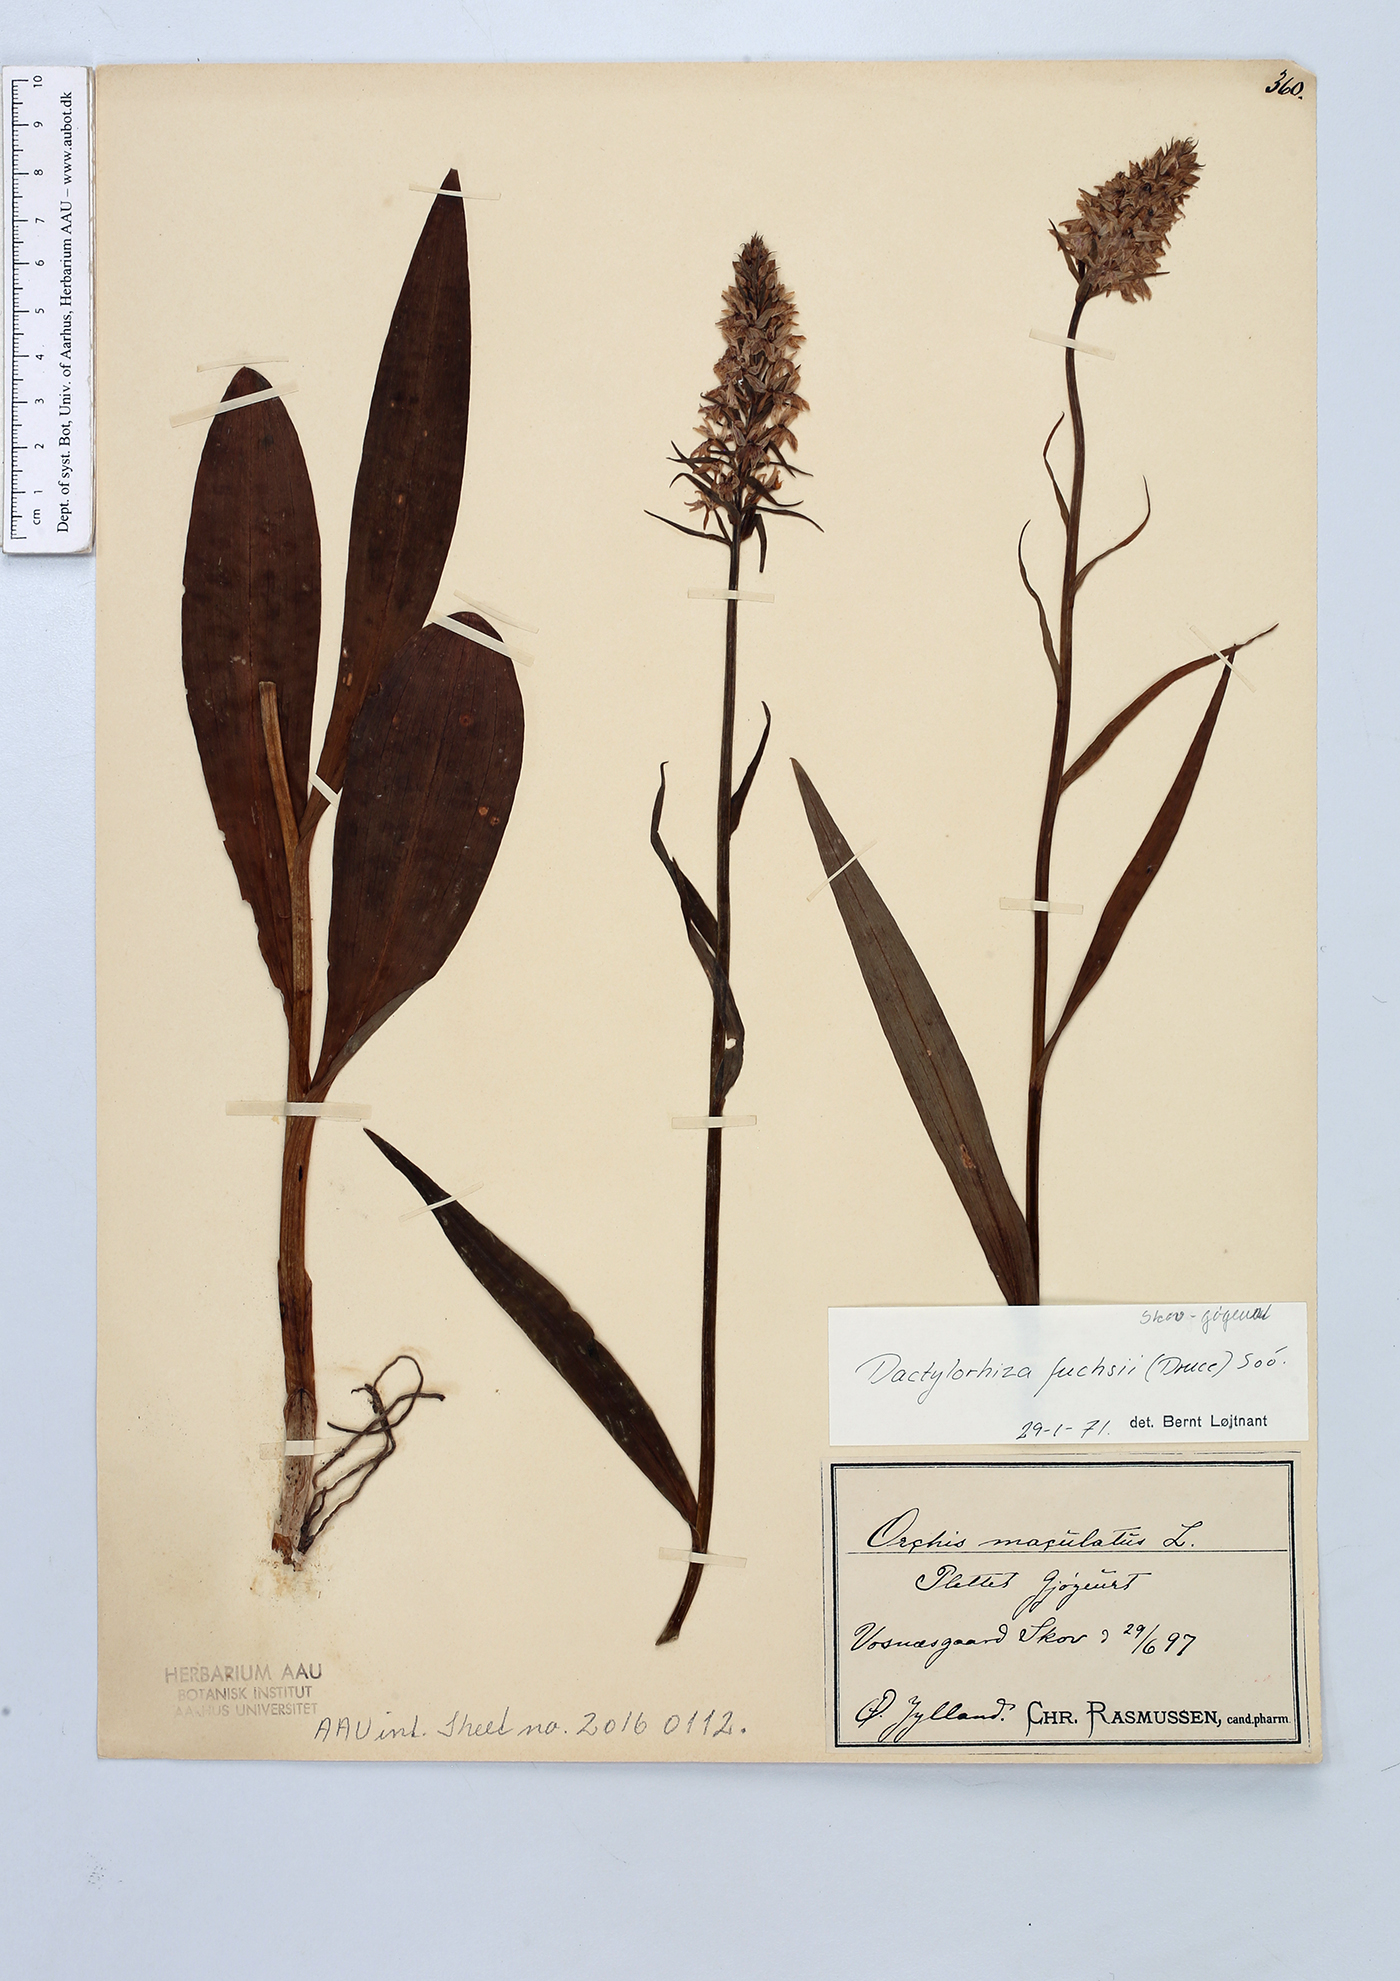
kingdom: Plantae
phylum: Tracheophyta
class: Liliopsida
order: Asparagales
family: Orchidaceae
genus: Dactylorhiza
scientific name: Dactylorhiza maculata
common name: Heath spotted-orchid
